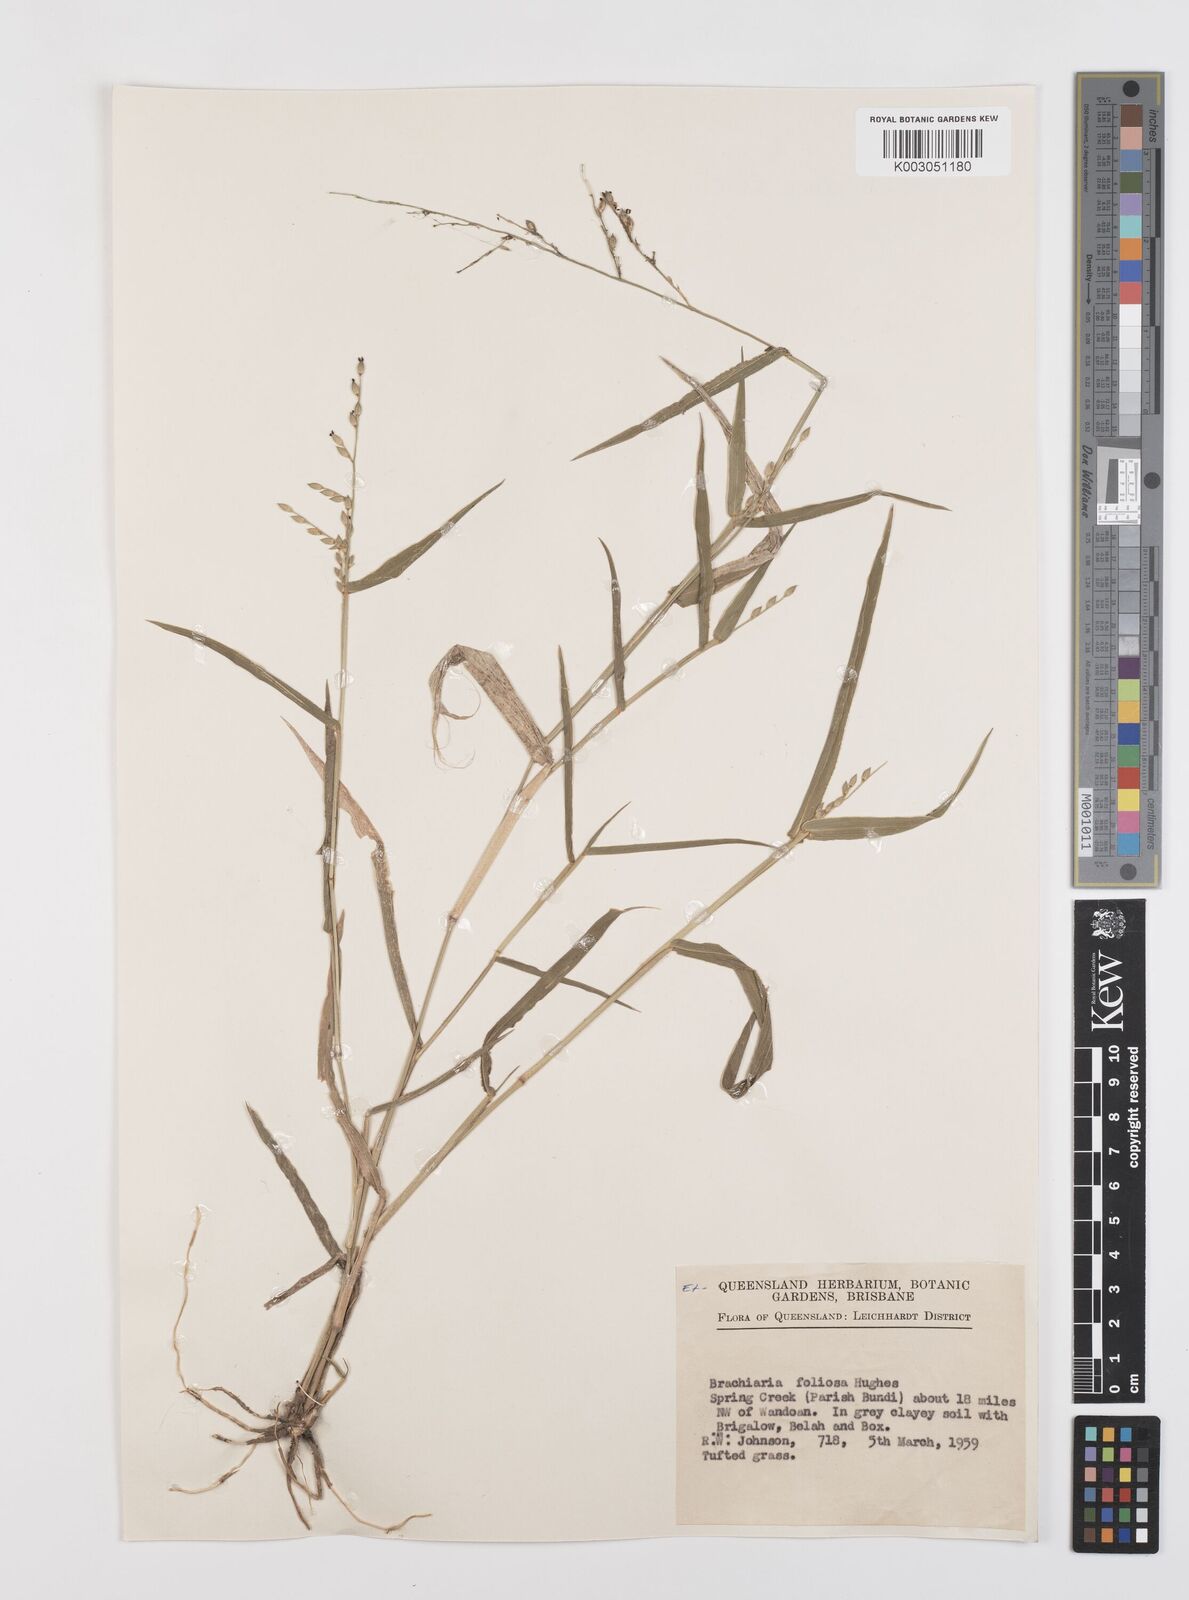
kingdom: Plantae
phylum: Tracheophyta
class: Liliopsida
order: Poales
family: Poaceae
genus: Urochloa
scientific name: Urochloa foliosa
